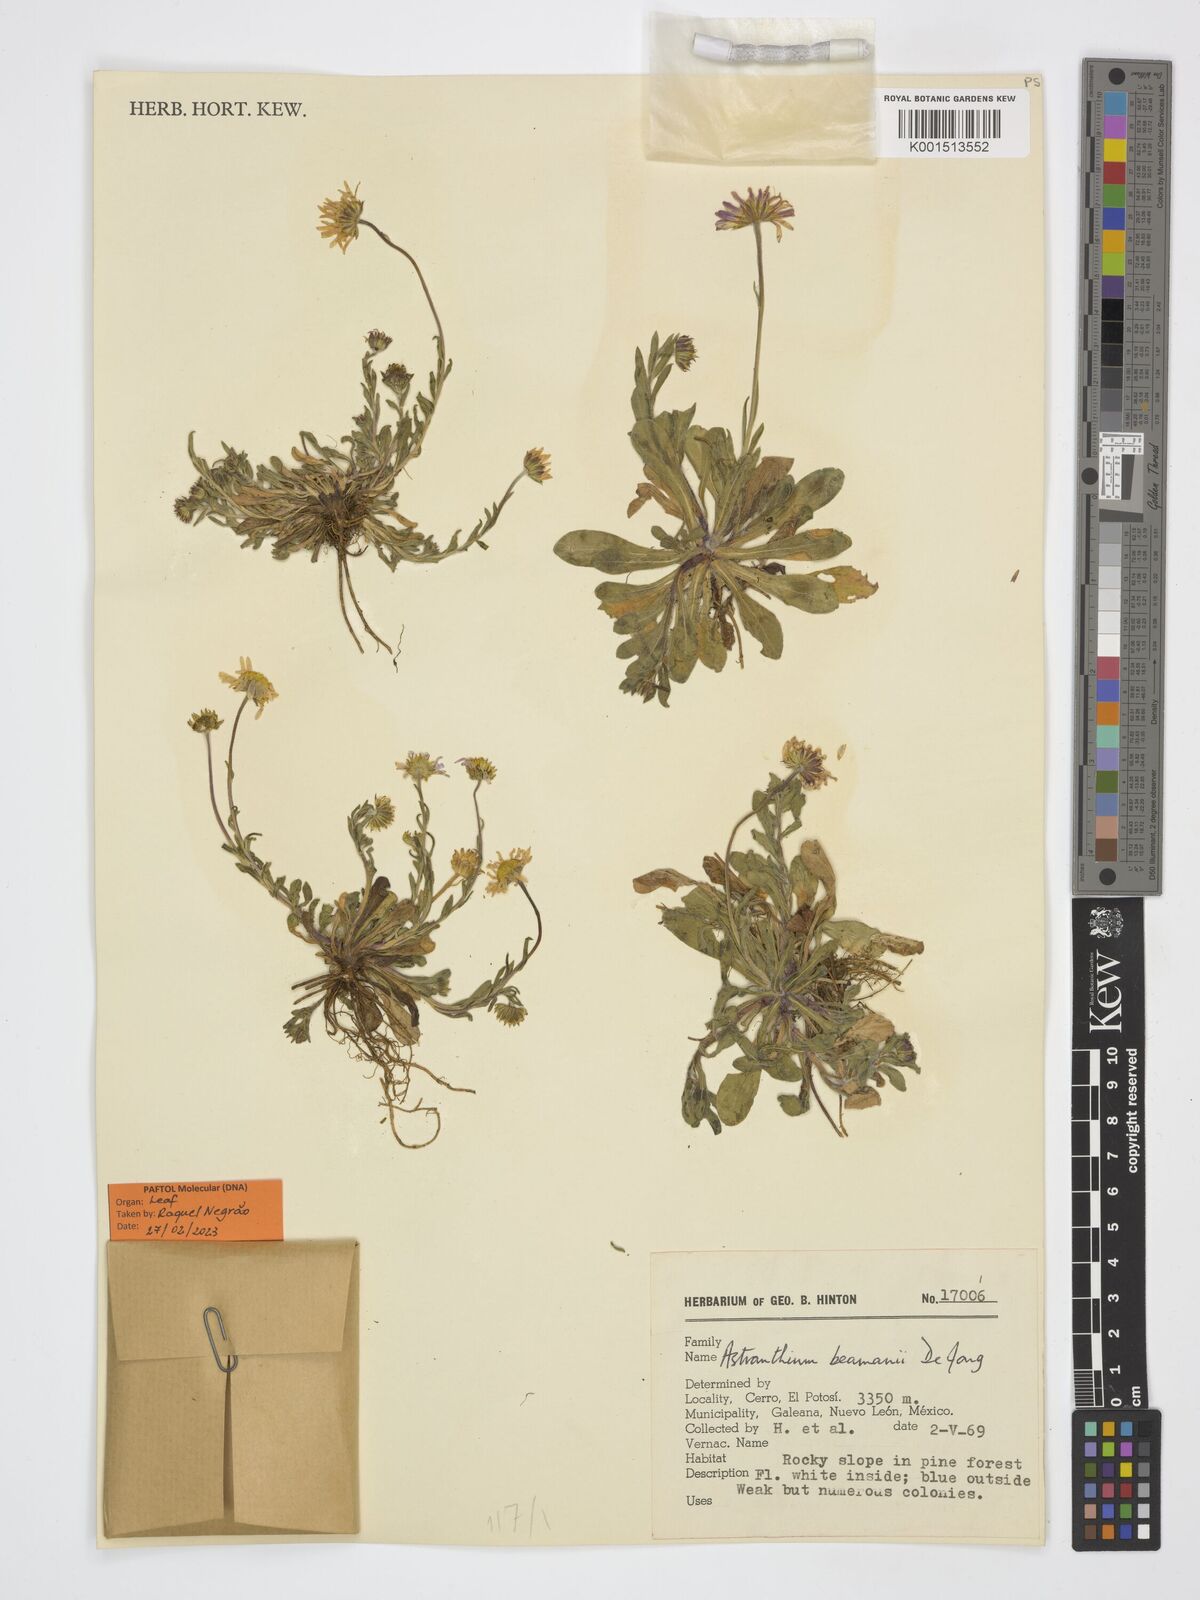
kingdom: Plantae
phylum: Tracheophyta
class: Magnoliopsida
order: Asterales
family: Asteraceae
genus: Astranthium
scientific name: Astranthium beamanii
